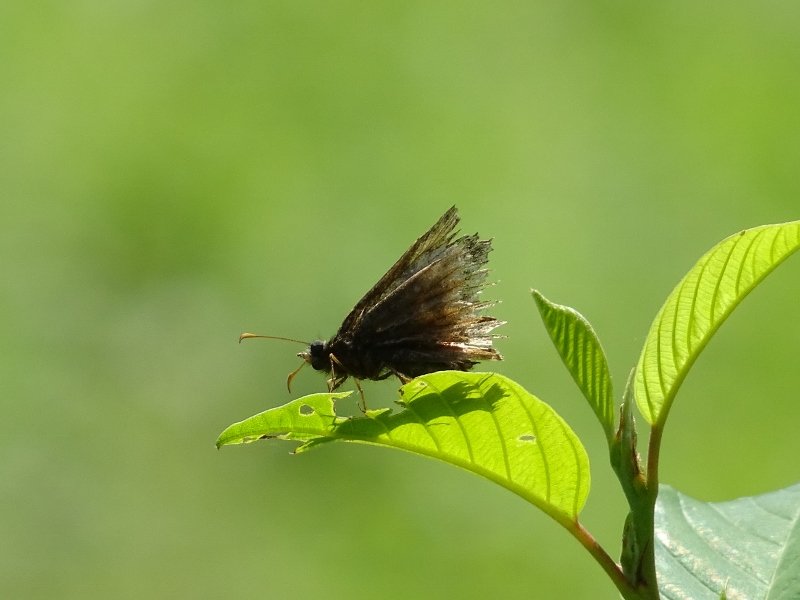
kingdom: Animalia
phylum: Arthropoda
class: Insecta
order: Lepidoptera
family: Hesperiidae
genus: Gesta
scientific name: Gesta
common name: Wild Indigo Duskywing
